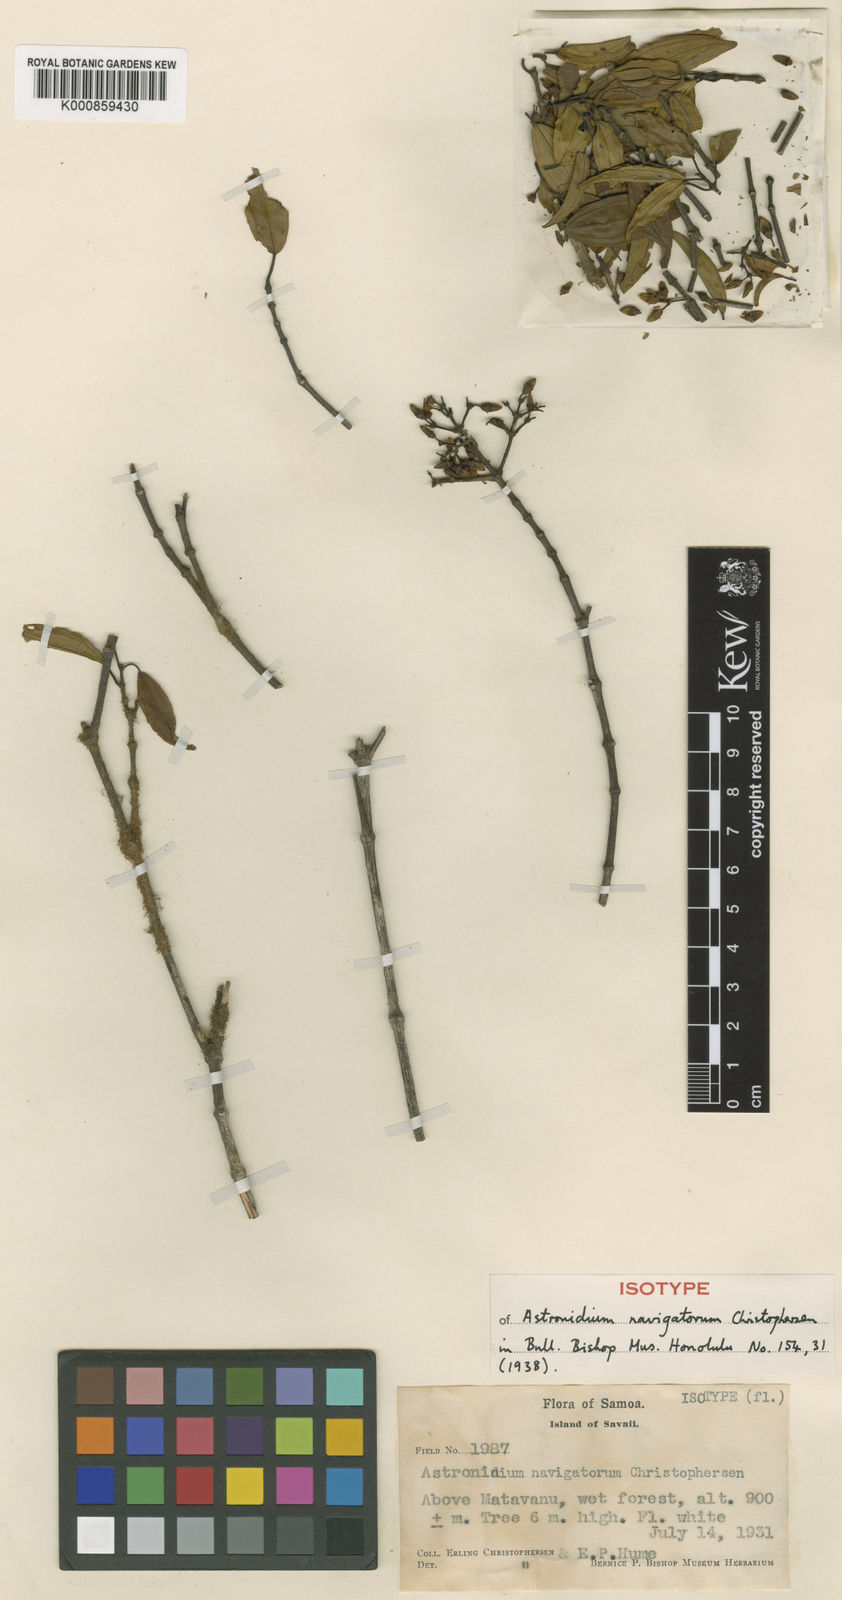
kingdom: Plantae
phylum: Tracheophyta
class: Magnoliopsida
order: Myrtales
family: Melastomataceae
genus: Astronidium
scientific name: Astronidium navigatorum
